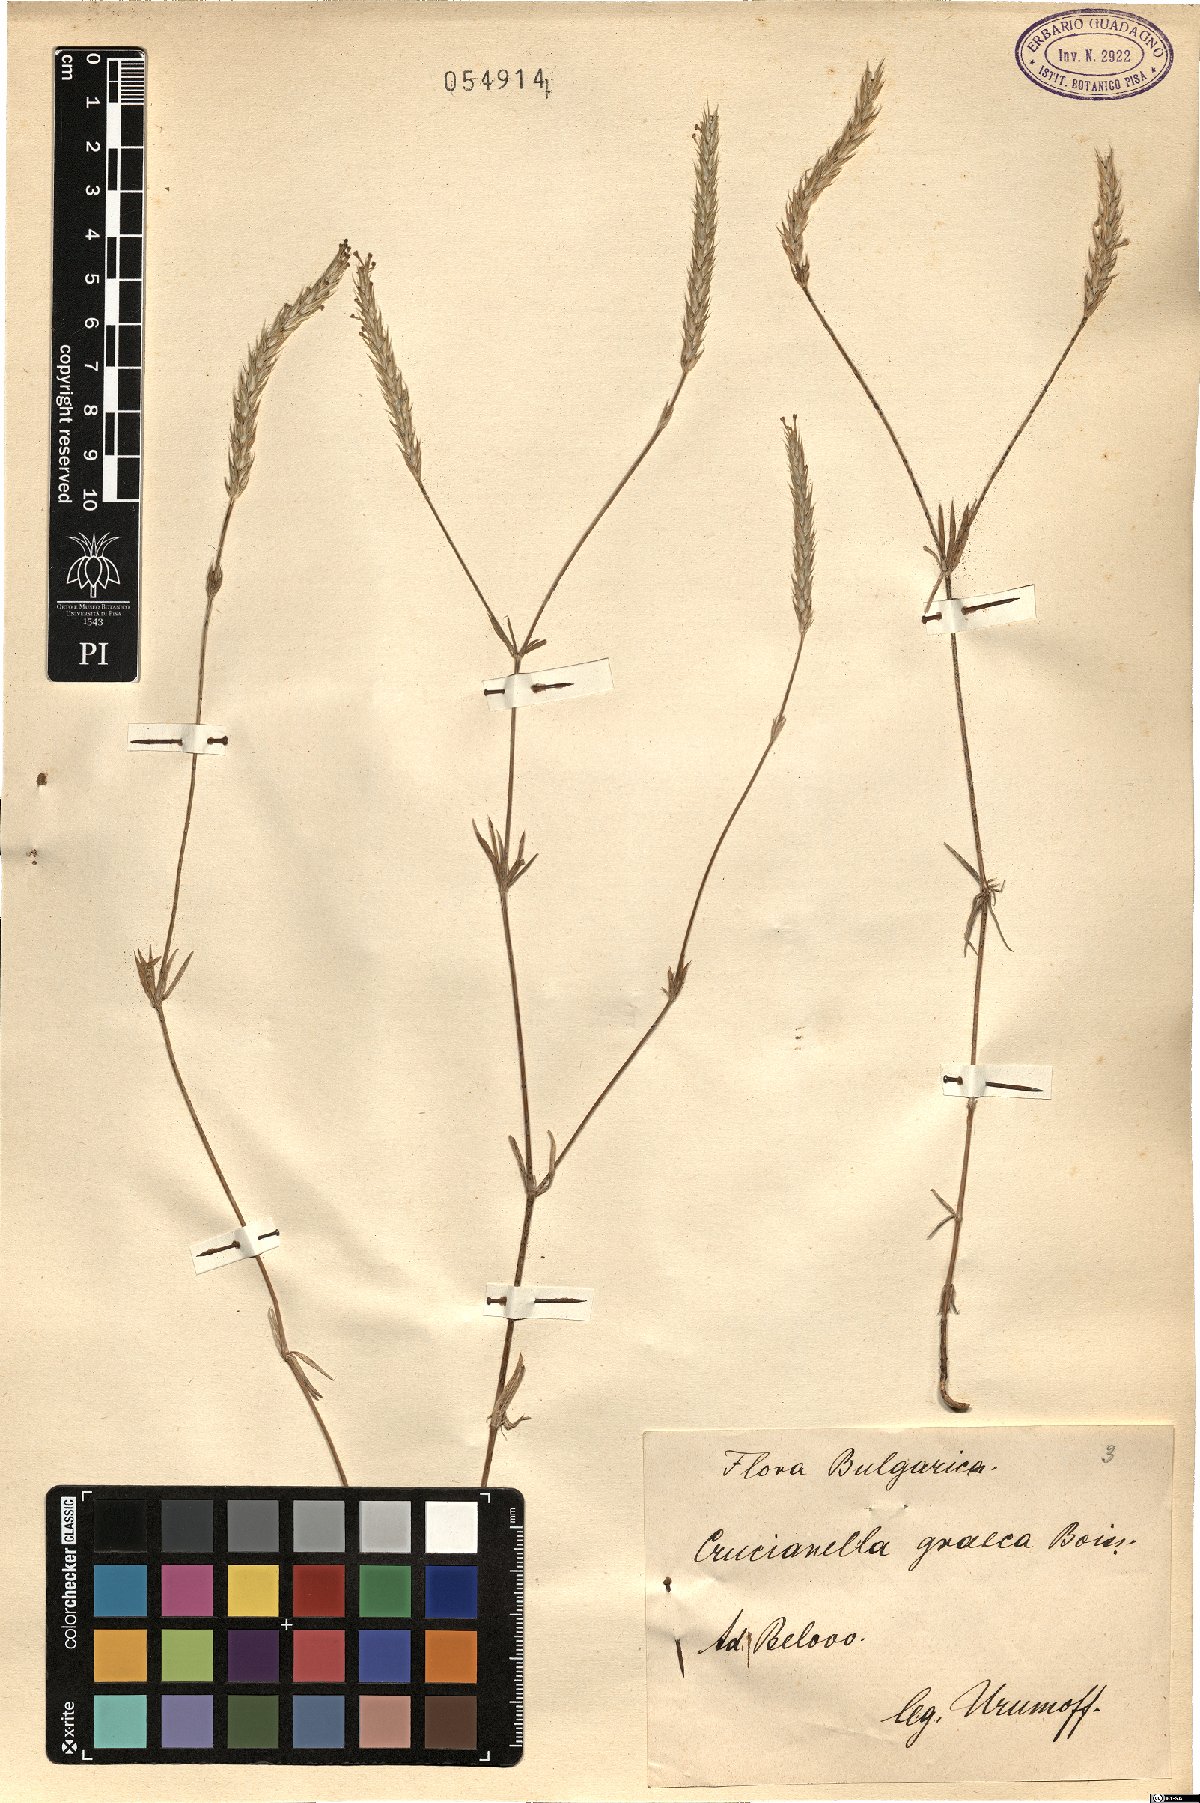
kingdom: Plantae
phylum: Tracheophyta
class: Magnoliopsida
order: Gentianales
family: Rubiaceae
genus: Crucianella
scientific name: Crucianella graeca
